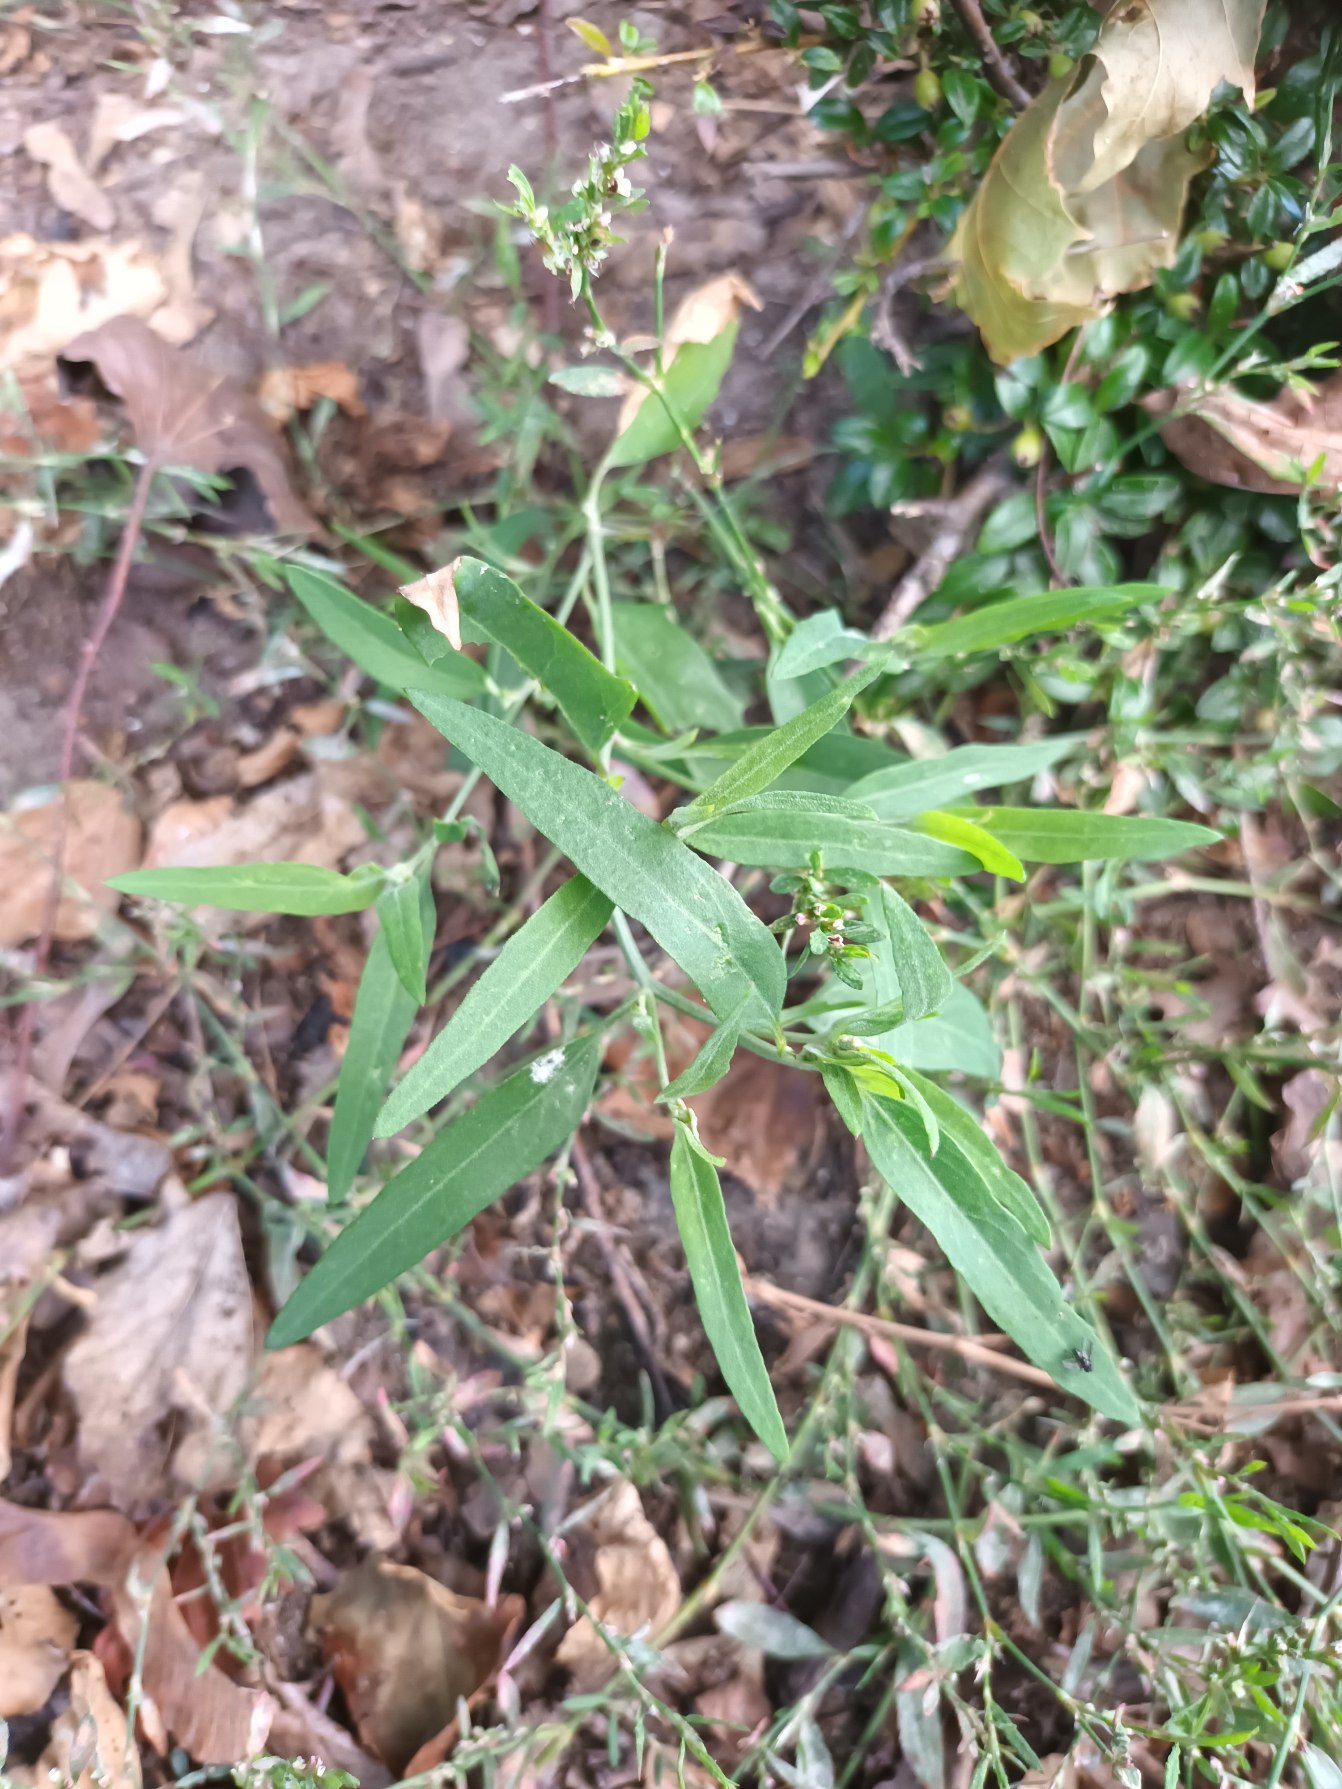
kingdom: Plantae
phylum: Tracheophyta
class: Magnoliopsida
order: Caryophyllales
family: Amaranthaceae
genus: Atriplex
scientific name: Atriplex patula
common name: Svine-mælde
